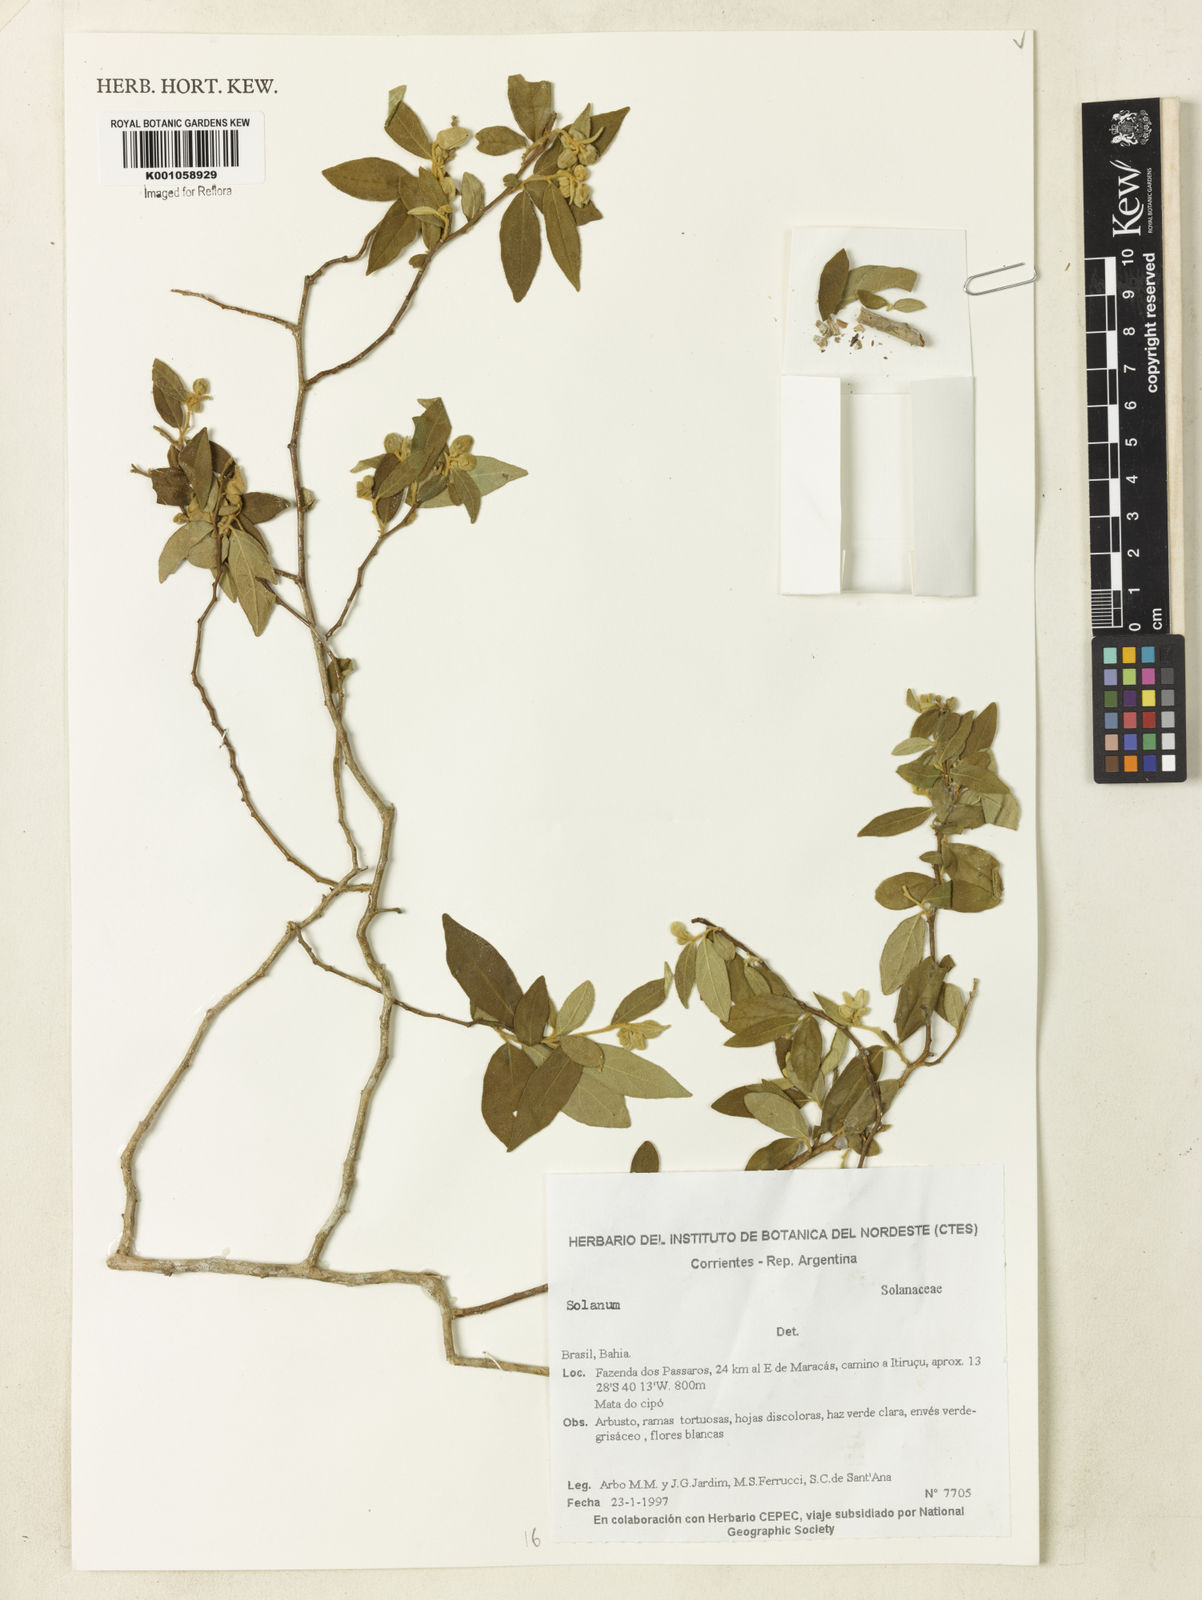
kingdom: Plantae
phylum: Tracheophyta
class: Magnoliopsida
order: Solanales
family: Solanaceae
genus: Solanum
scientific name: Solanum
